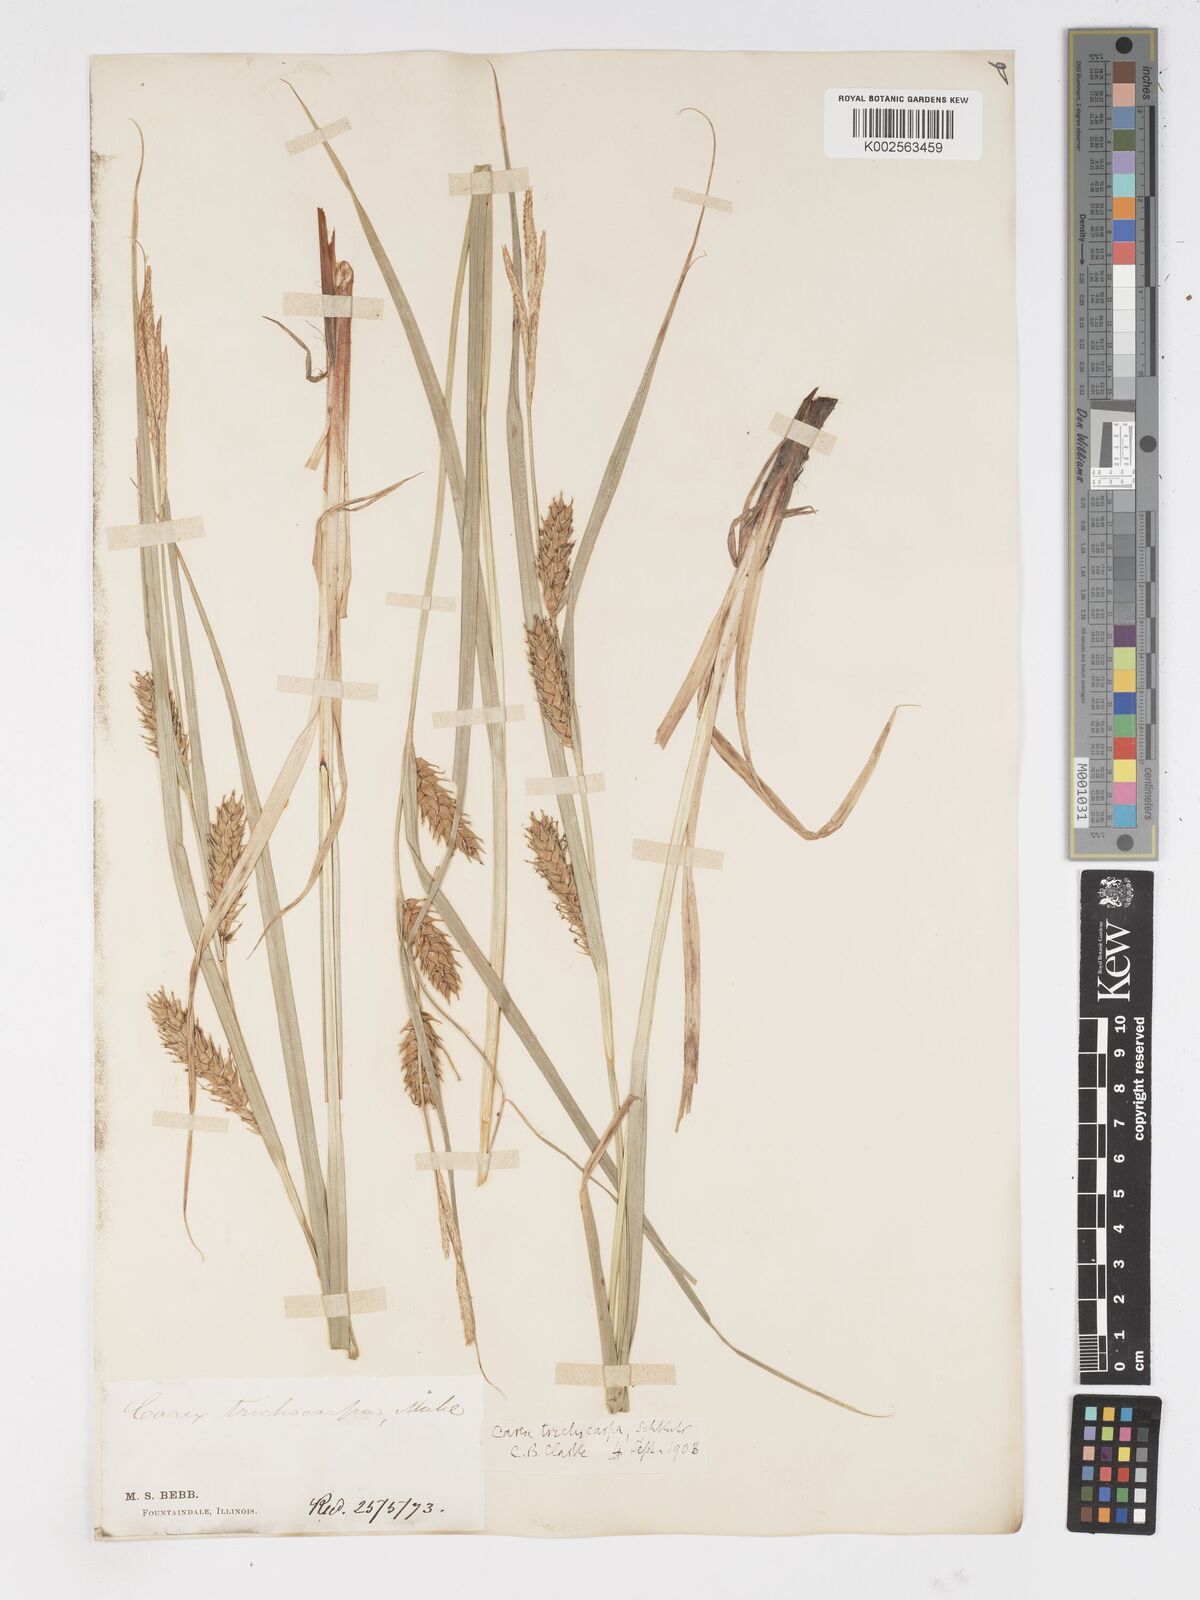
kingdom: Plantae
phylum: Tracheophyta
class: Liliopsida
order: Poales
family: Cyperaceae
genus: Carex
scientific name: Carex trichocarpa
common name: Hairy-fruited lake sedge
